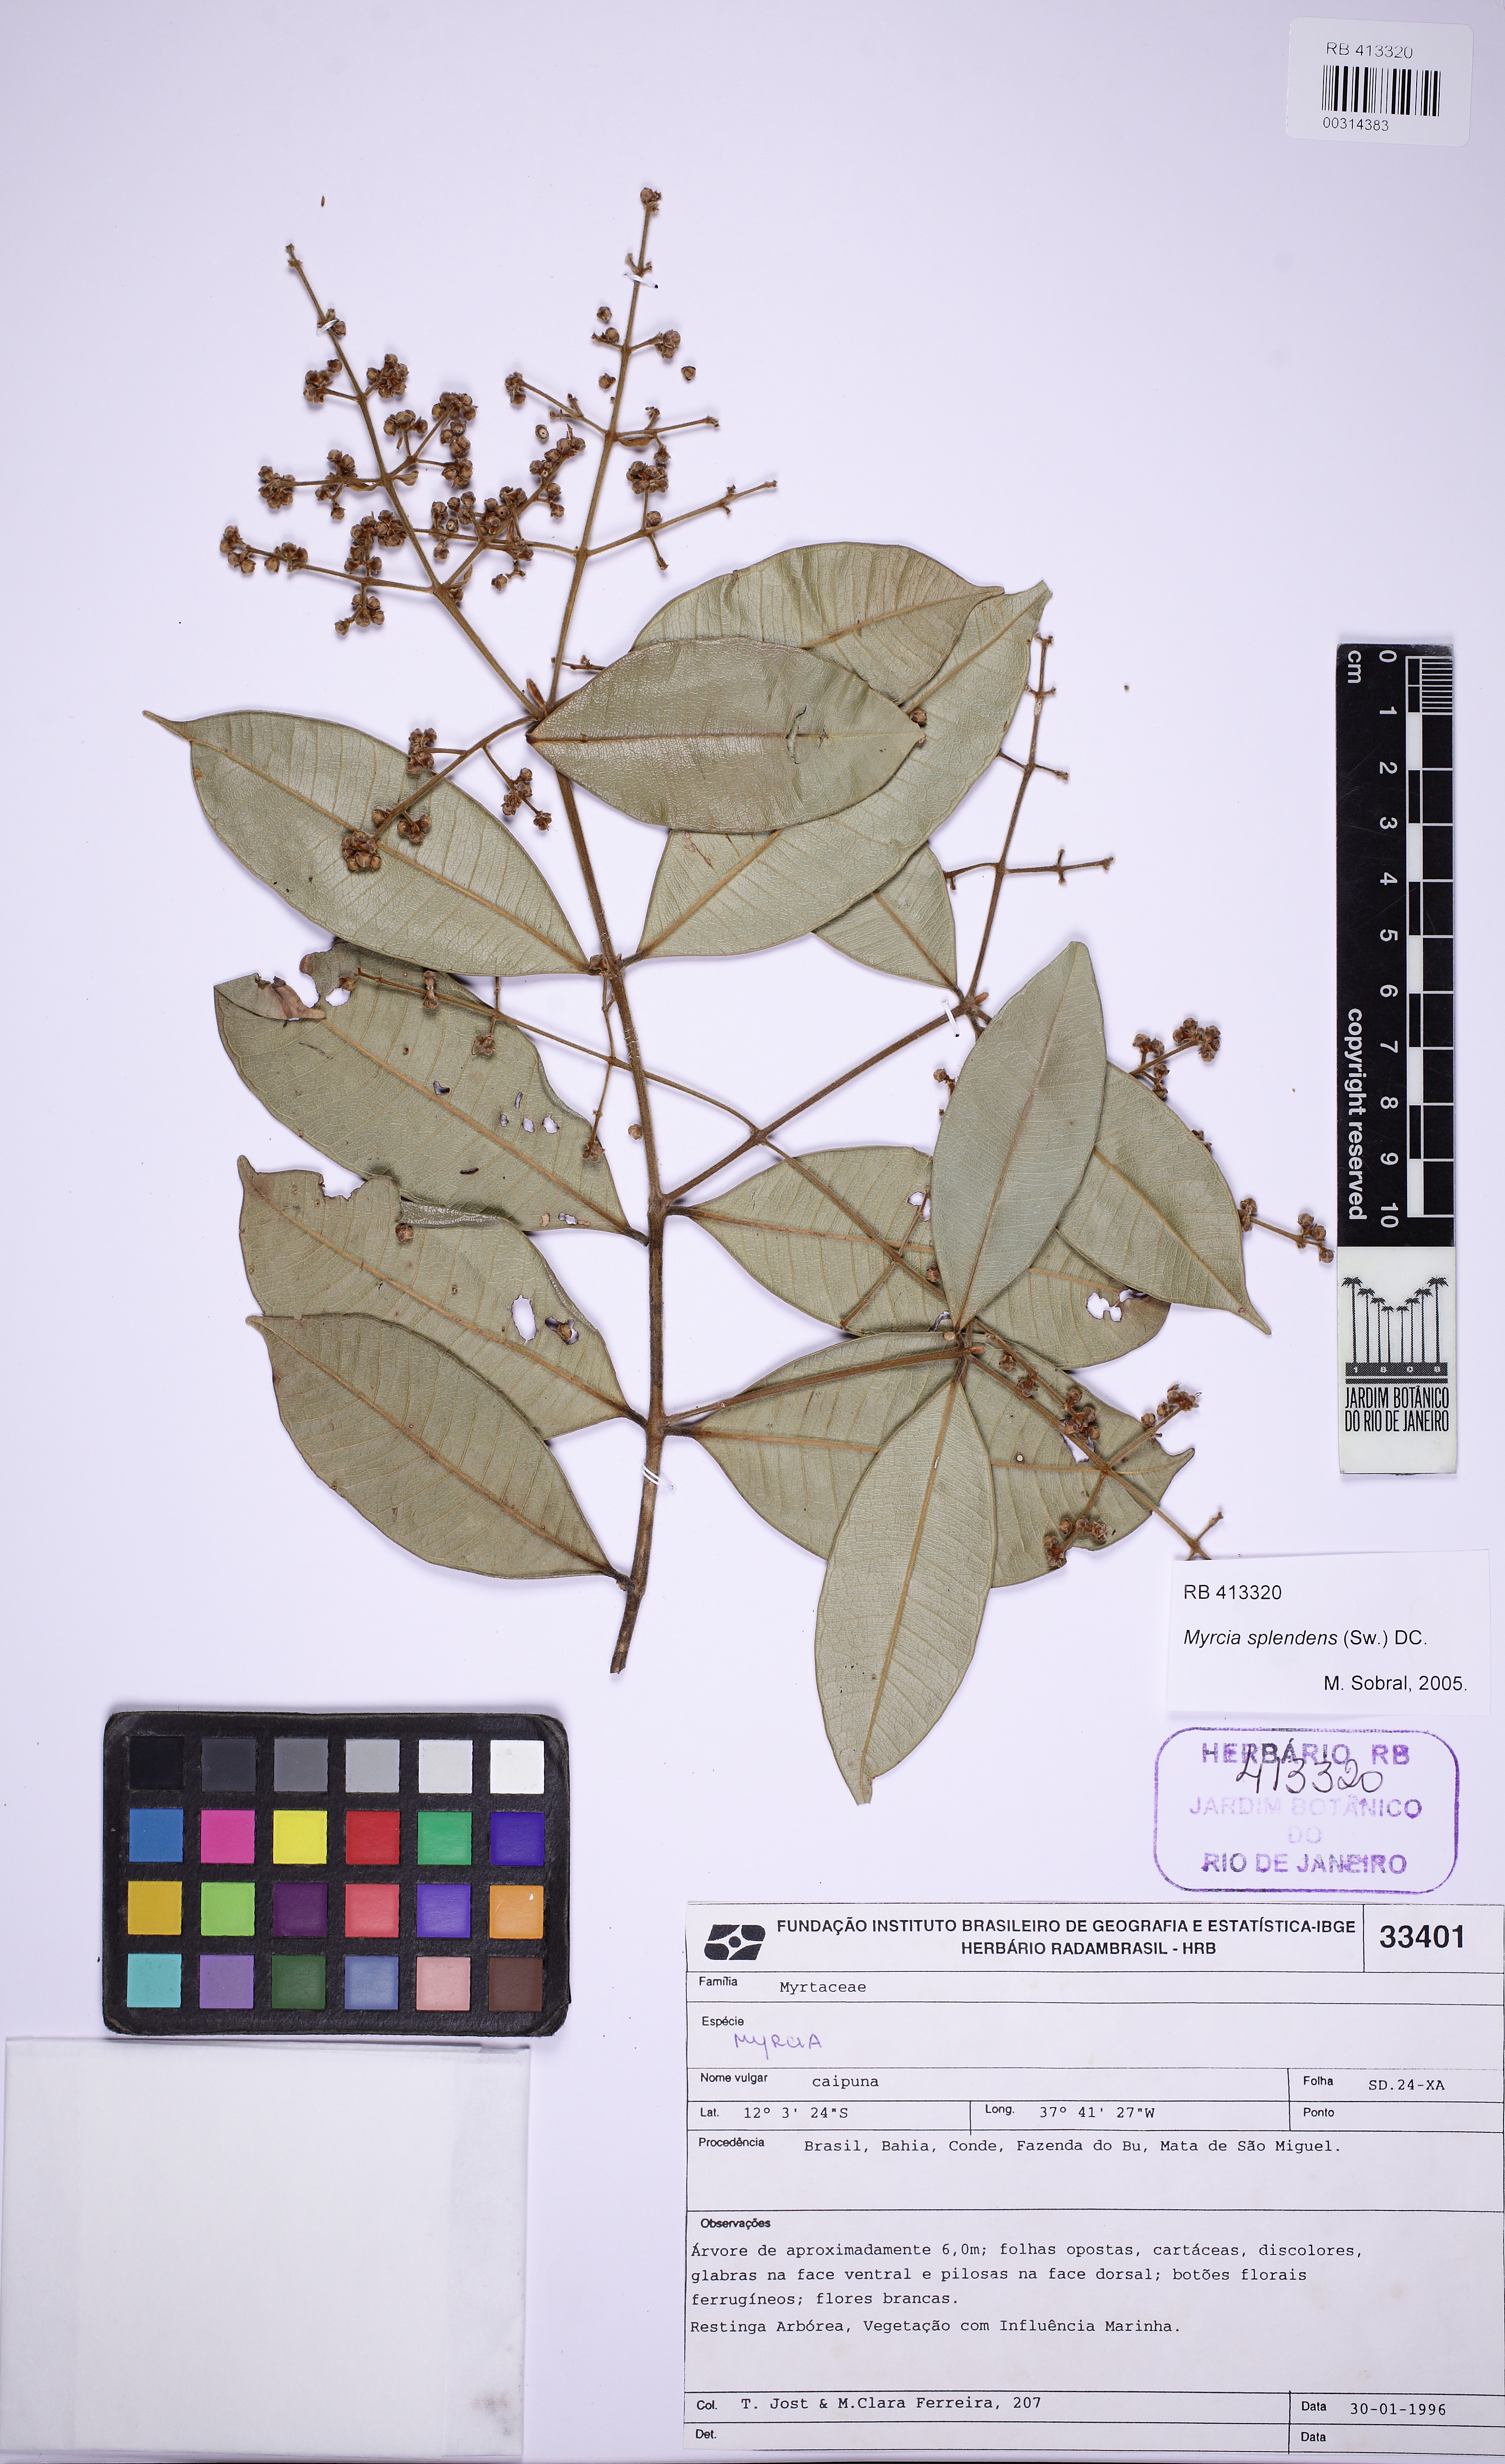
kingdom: Plantae
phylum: Tracheophyta
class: Magnoliopsida
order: Myrtales
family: Myrtaceae
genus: Myrcia
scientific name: Myrcia splendens
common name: Surinam cherry
